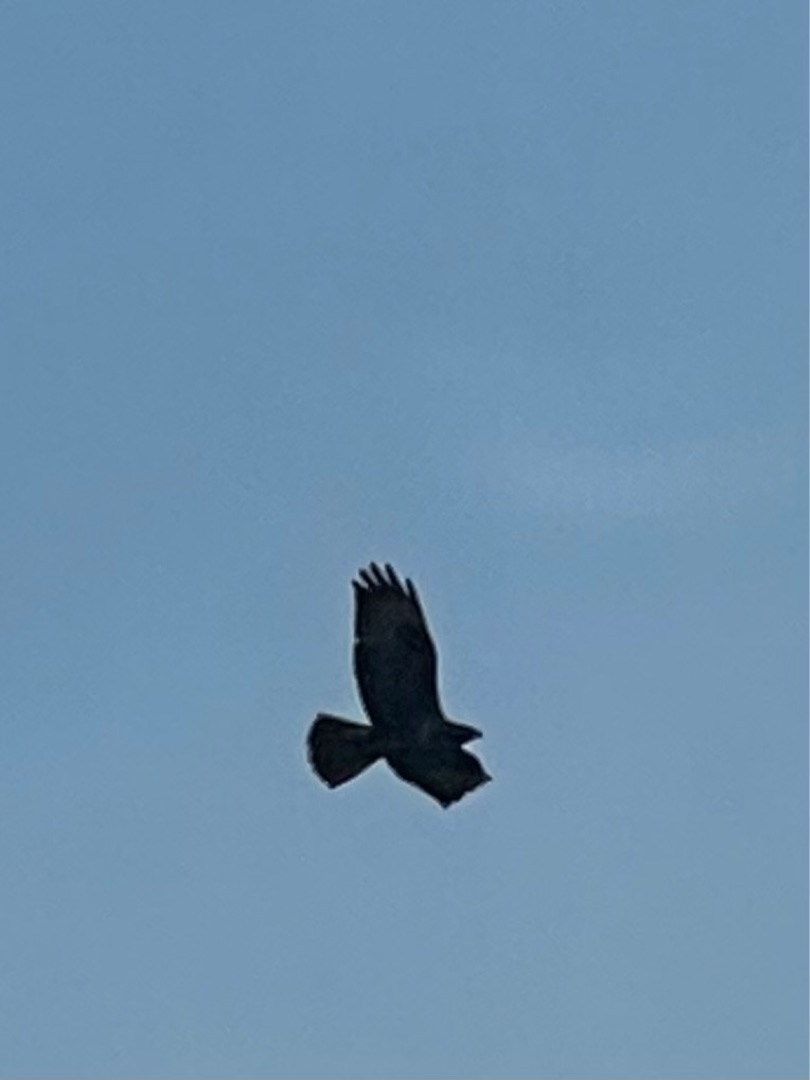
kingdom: Animalia
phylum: Chordata
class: Aves
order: Accipitriformes
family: Accipitridae
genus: Buteo
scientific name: Buteo buteo
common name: Musvåge
